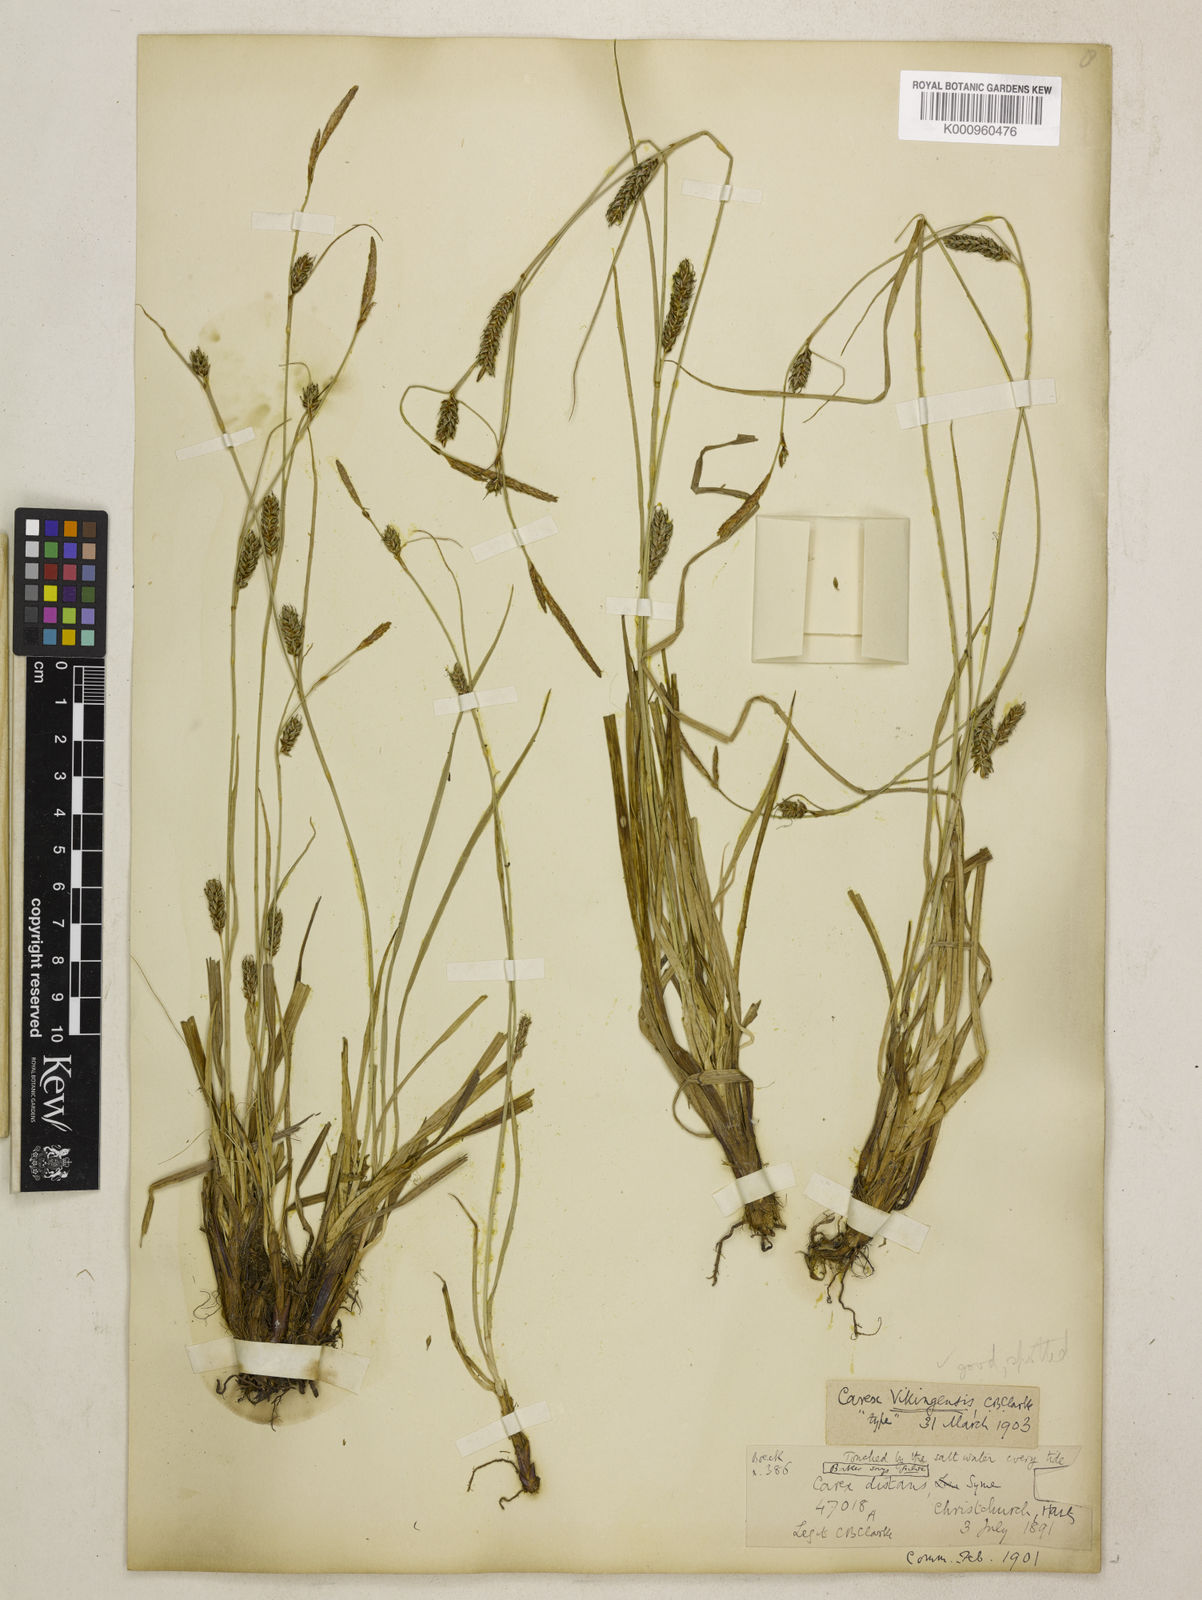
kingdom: Plantae
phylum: Tracheophyta
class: Liliopsida
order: Poales
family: Cyperaceae
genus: Carex
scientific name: Carex distans
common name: Distant sedge
